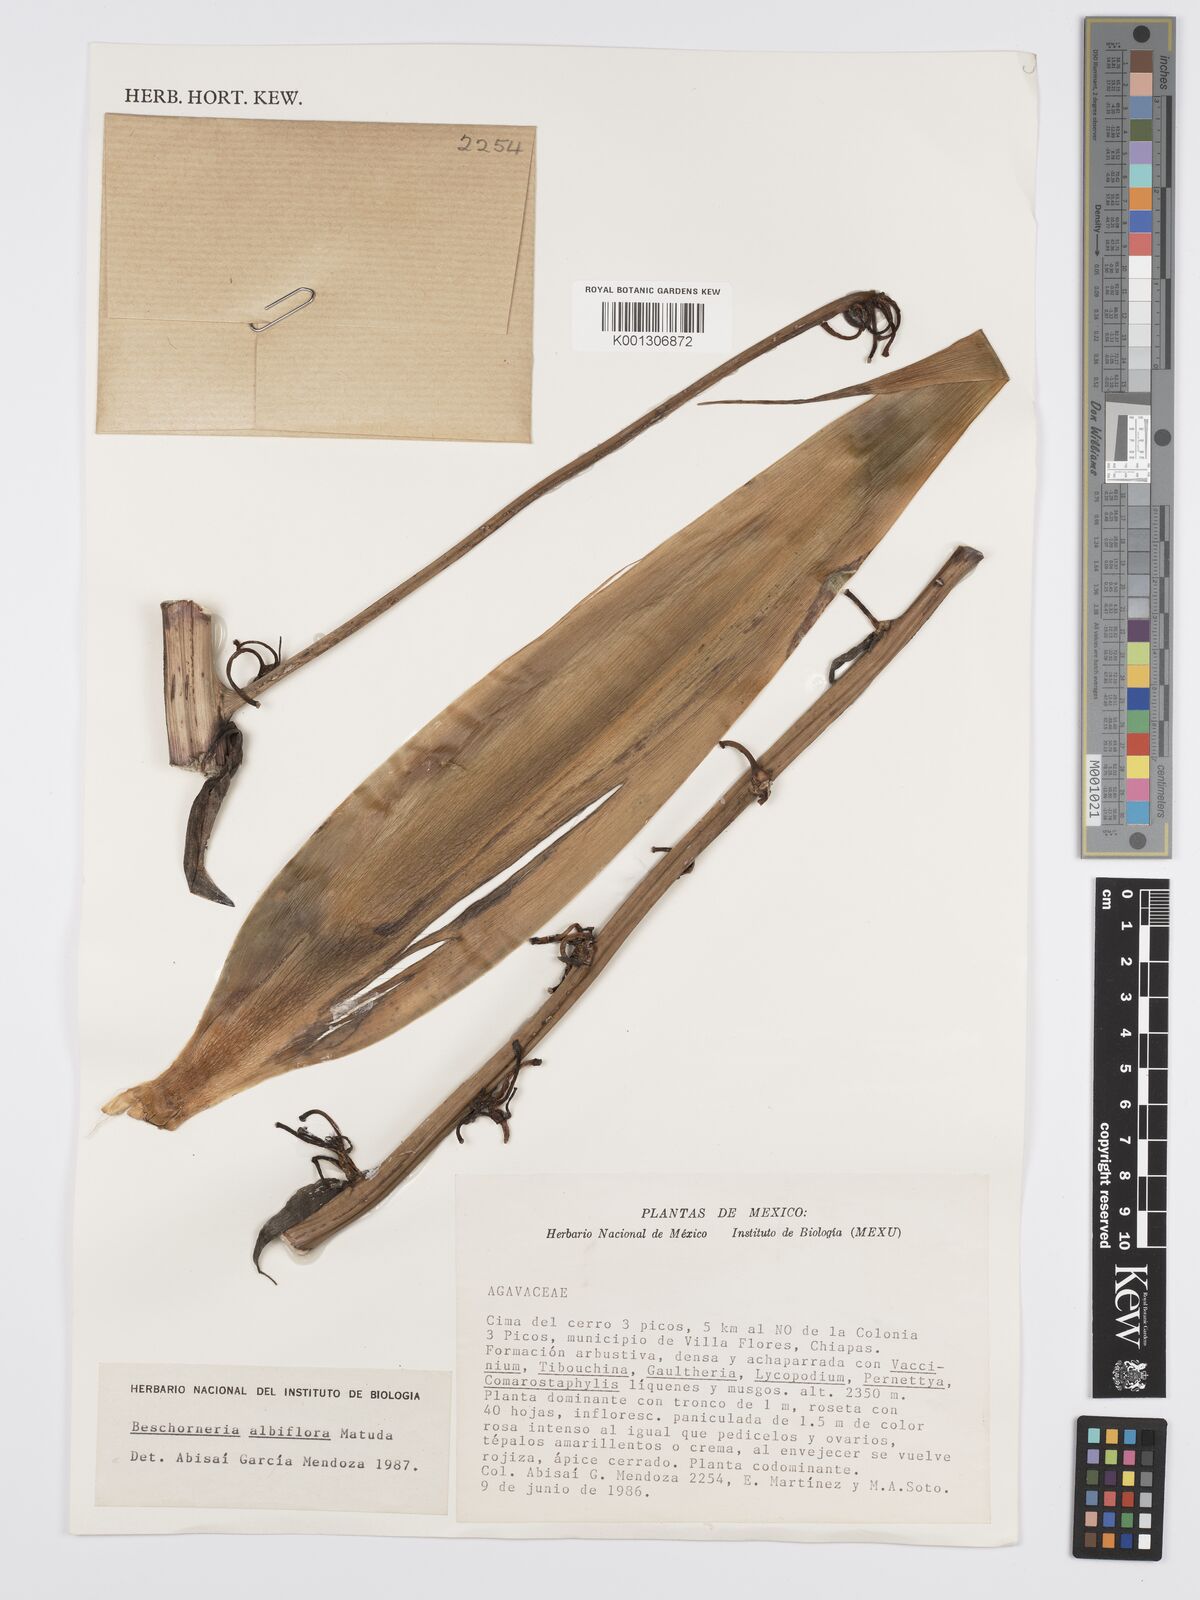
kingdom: Plantae
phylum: Tracheophyta
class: Liliopsida
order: Asparagales
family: Asparagaceae
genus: Beschorneria
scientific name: Beschorneria albiflora
